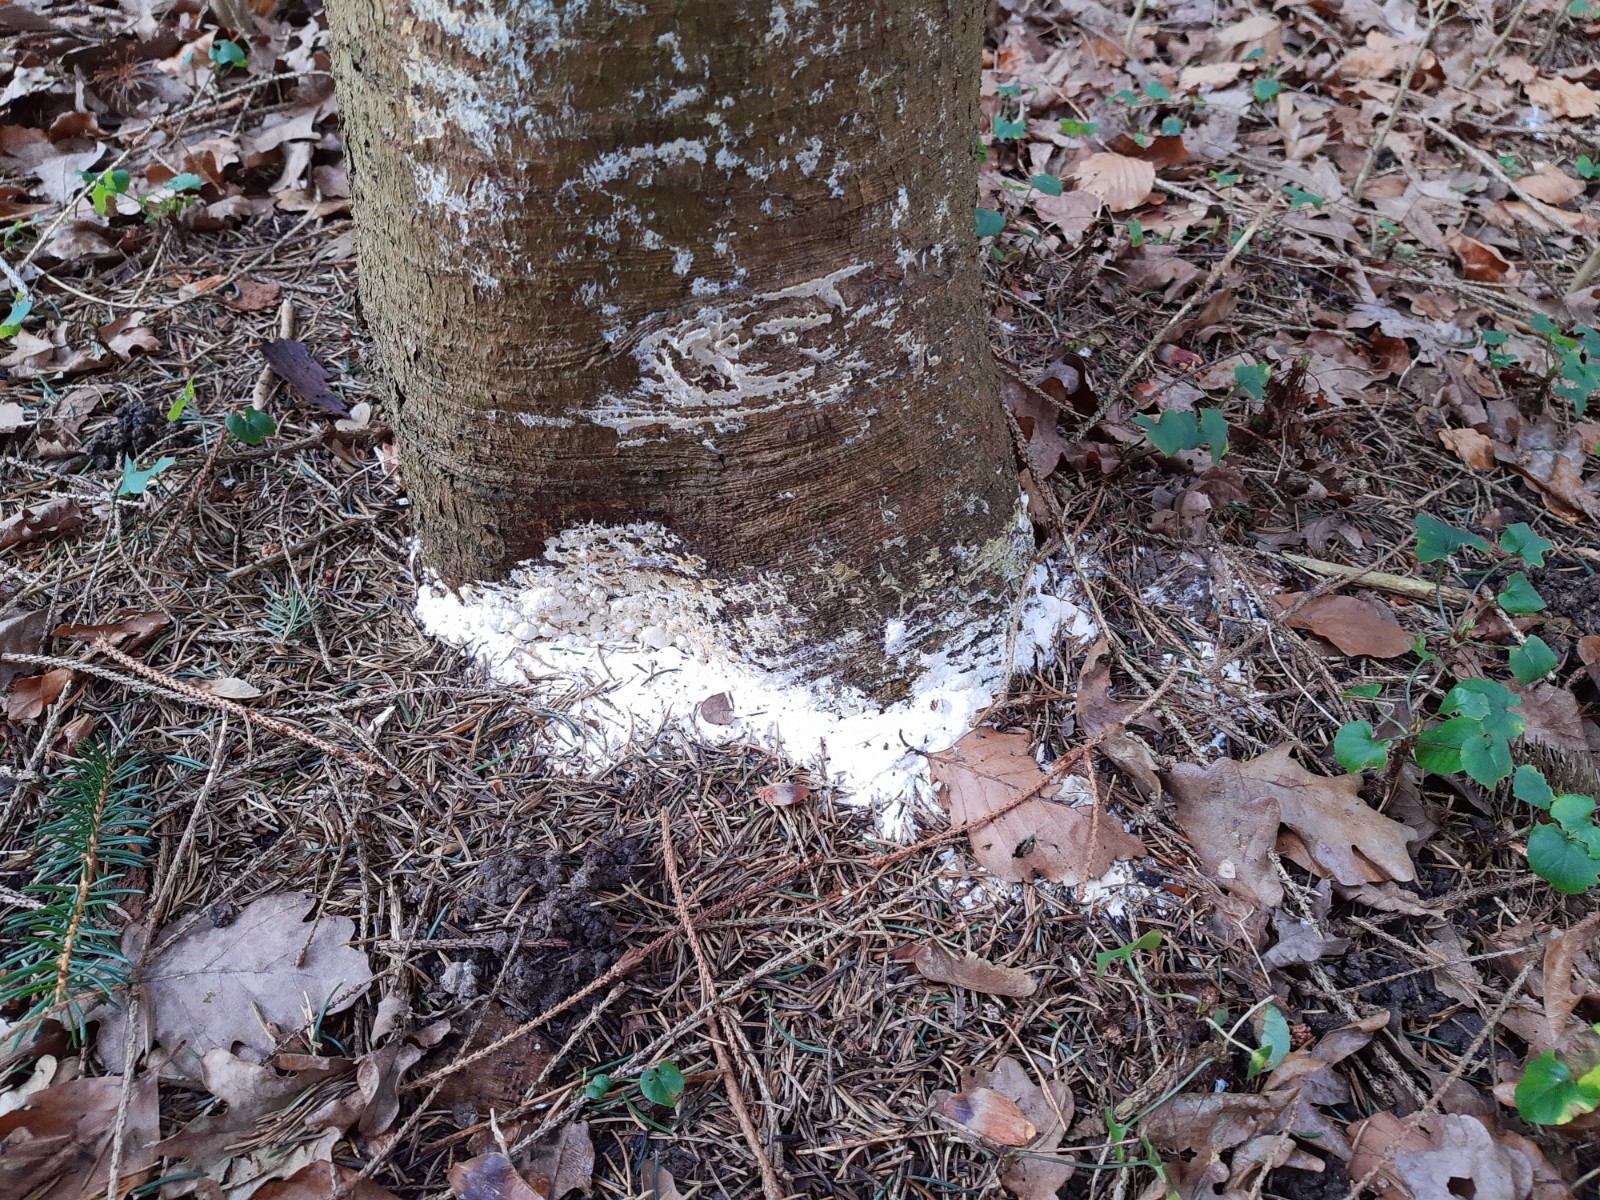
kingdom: Fungi
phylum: Basidiomycota
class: Agaricomycetes
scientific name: Agaricomycetes
